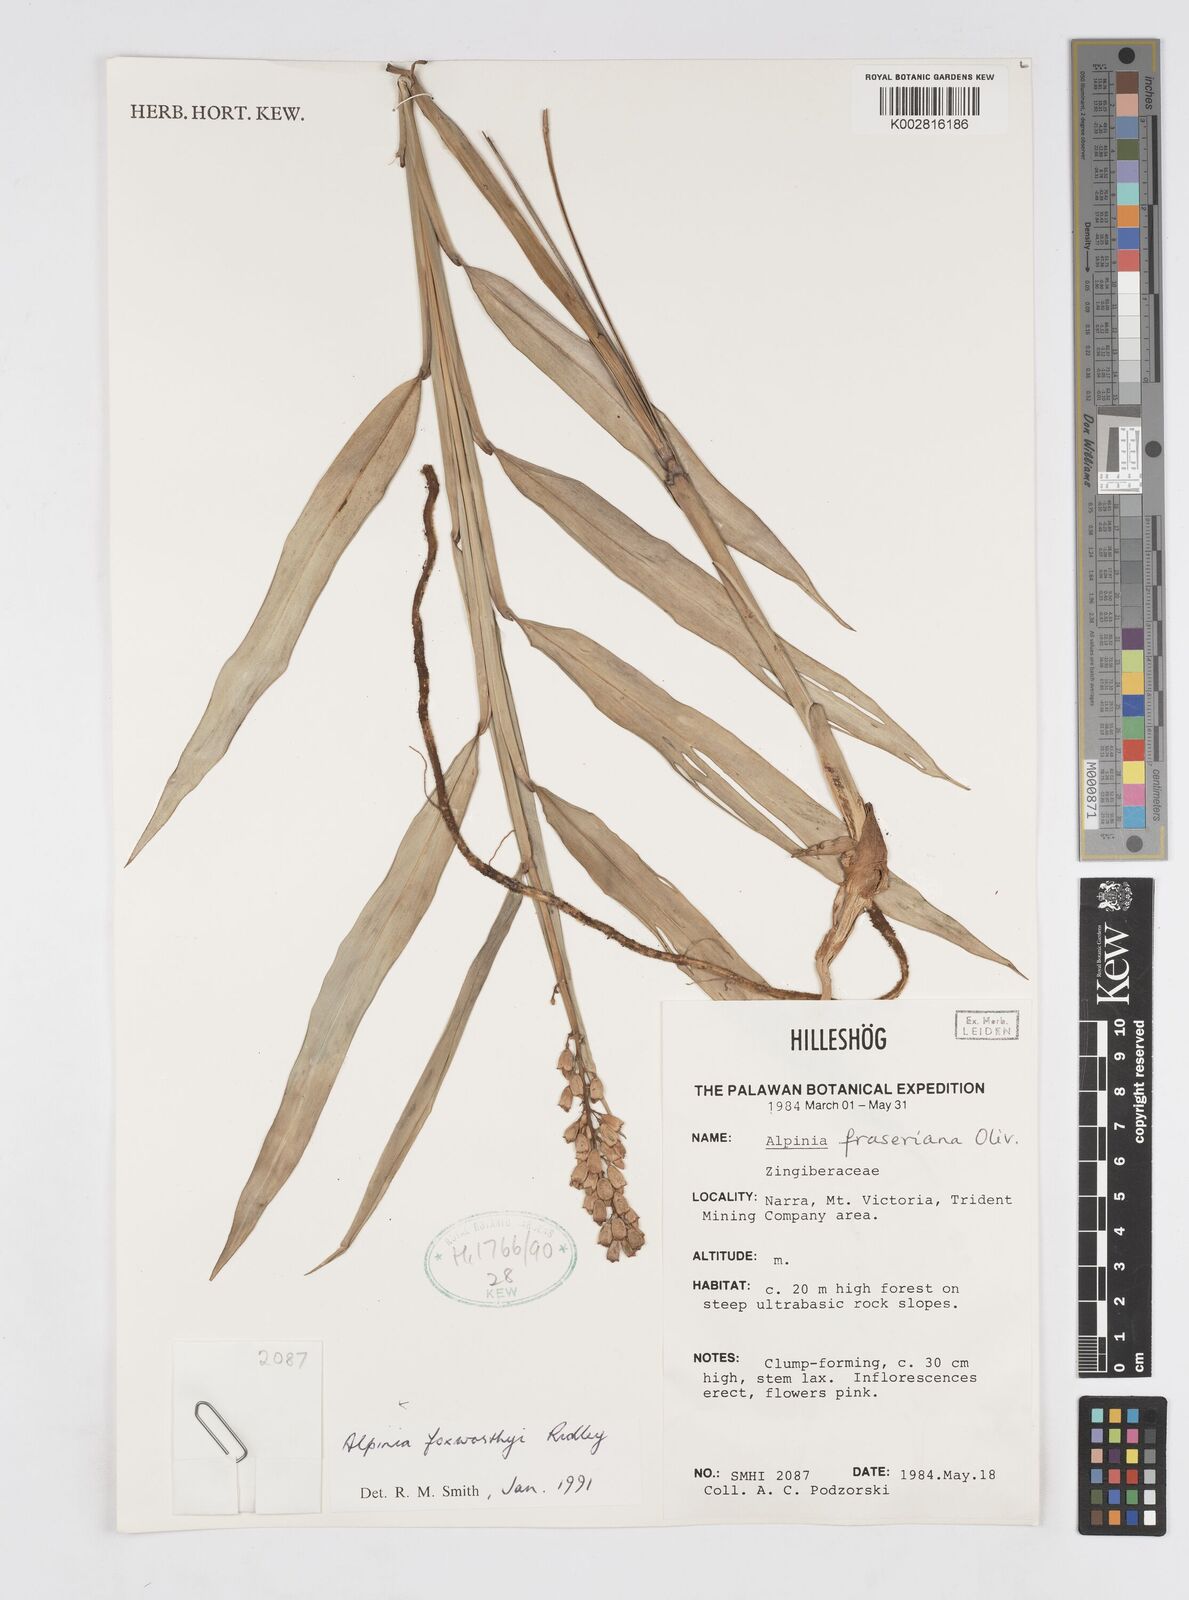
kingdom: Plantae
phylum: Tracheophyta
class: Liliopsida
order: Zingiberales
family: Zingiberaceae
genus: Alpinia
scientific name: Alpinia foxworthyi
